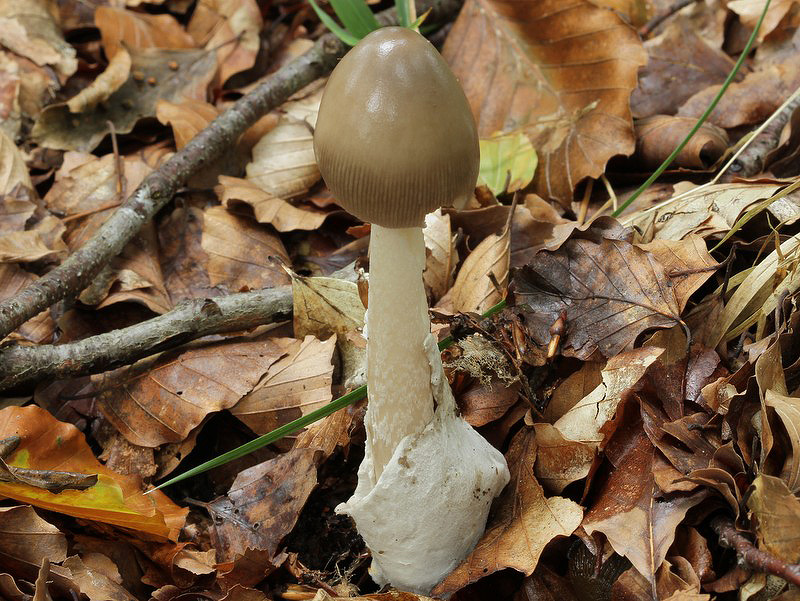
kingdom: Fungi
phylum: Basidiomycota
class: Agaricomycetes
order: Agaricales
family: Amanitaceae
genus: Amanita
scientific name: Amanita vaginata
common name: grå kam-fluesvamp
